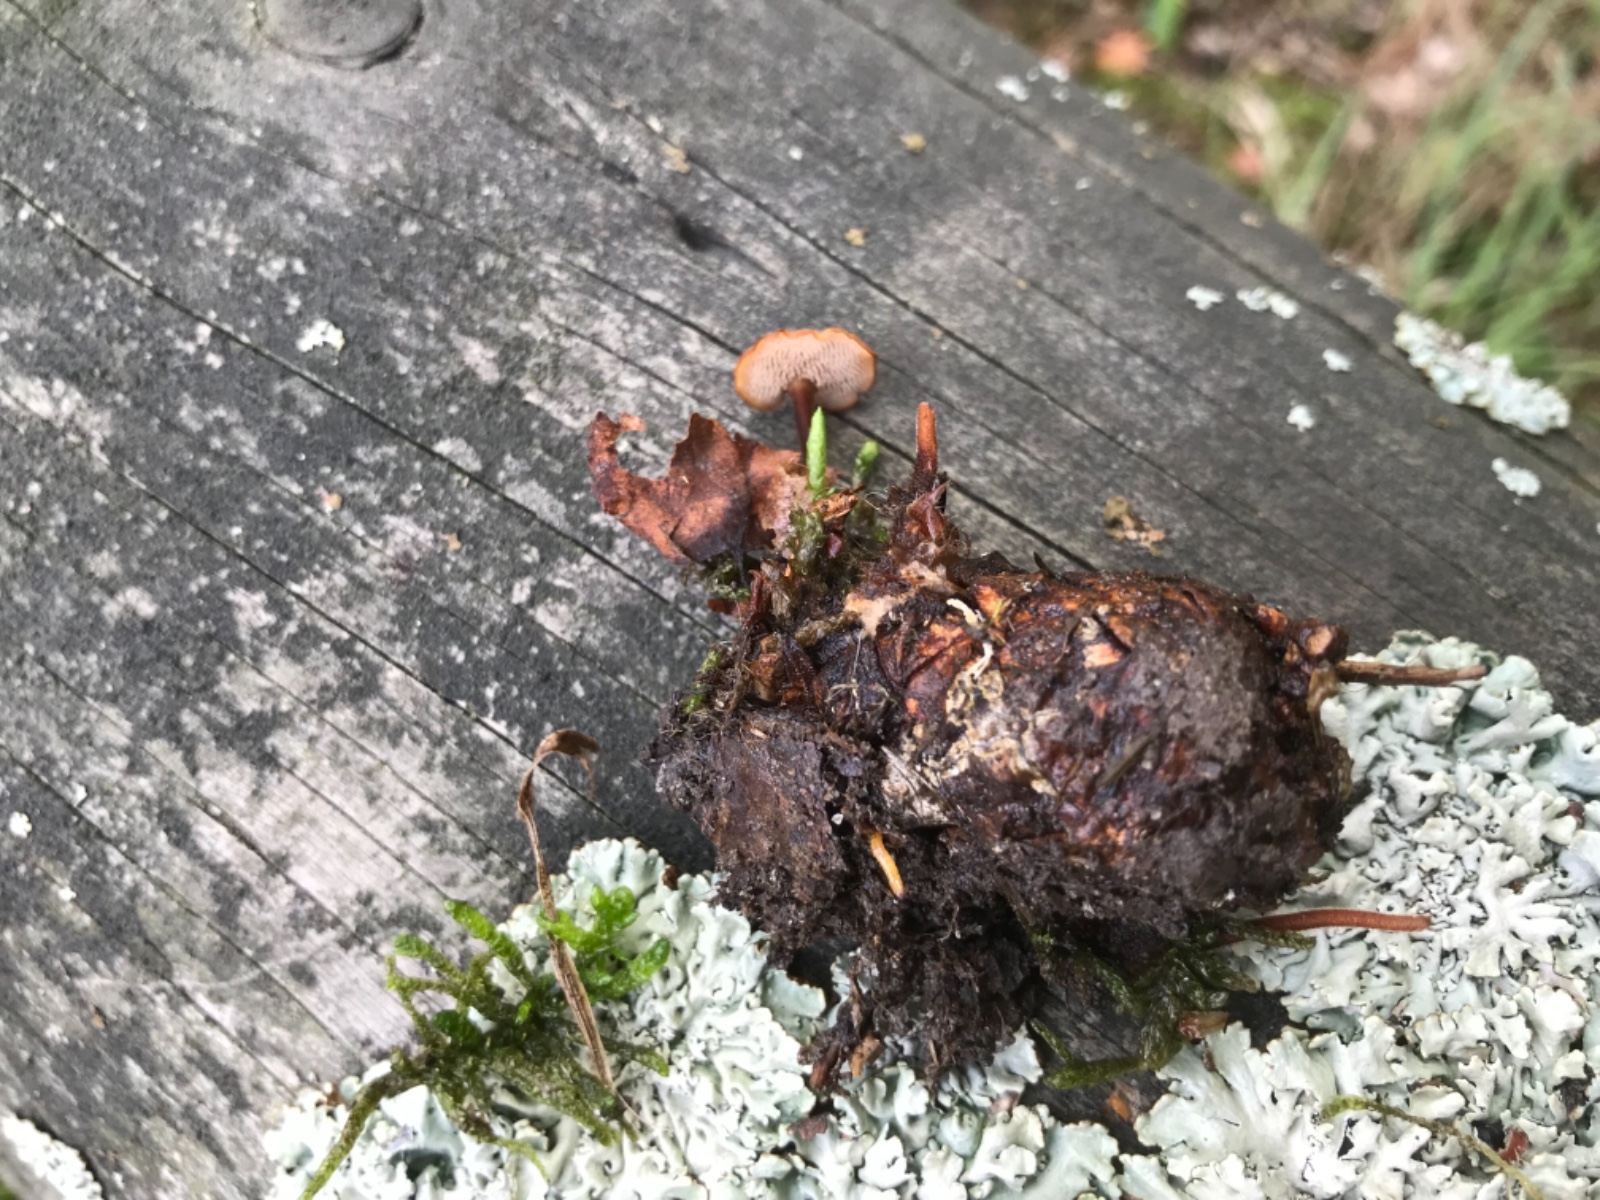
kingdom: Fungi
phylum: Basidiomycota
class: Agaricomycetes
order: Russulales
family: Auriscalpiaceae
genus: Auriscalpium
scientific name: Auriscalpium vulgare
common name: koglepigsvamp
